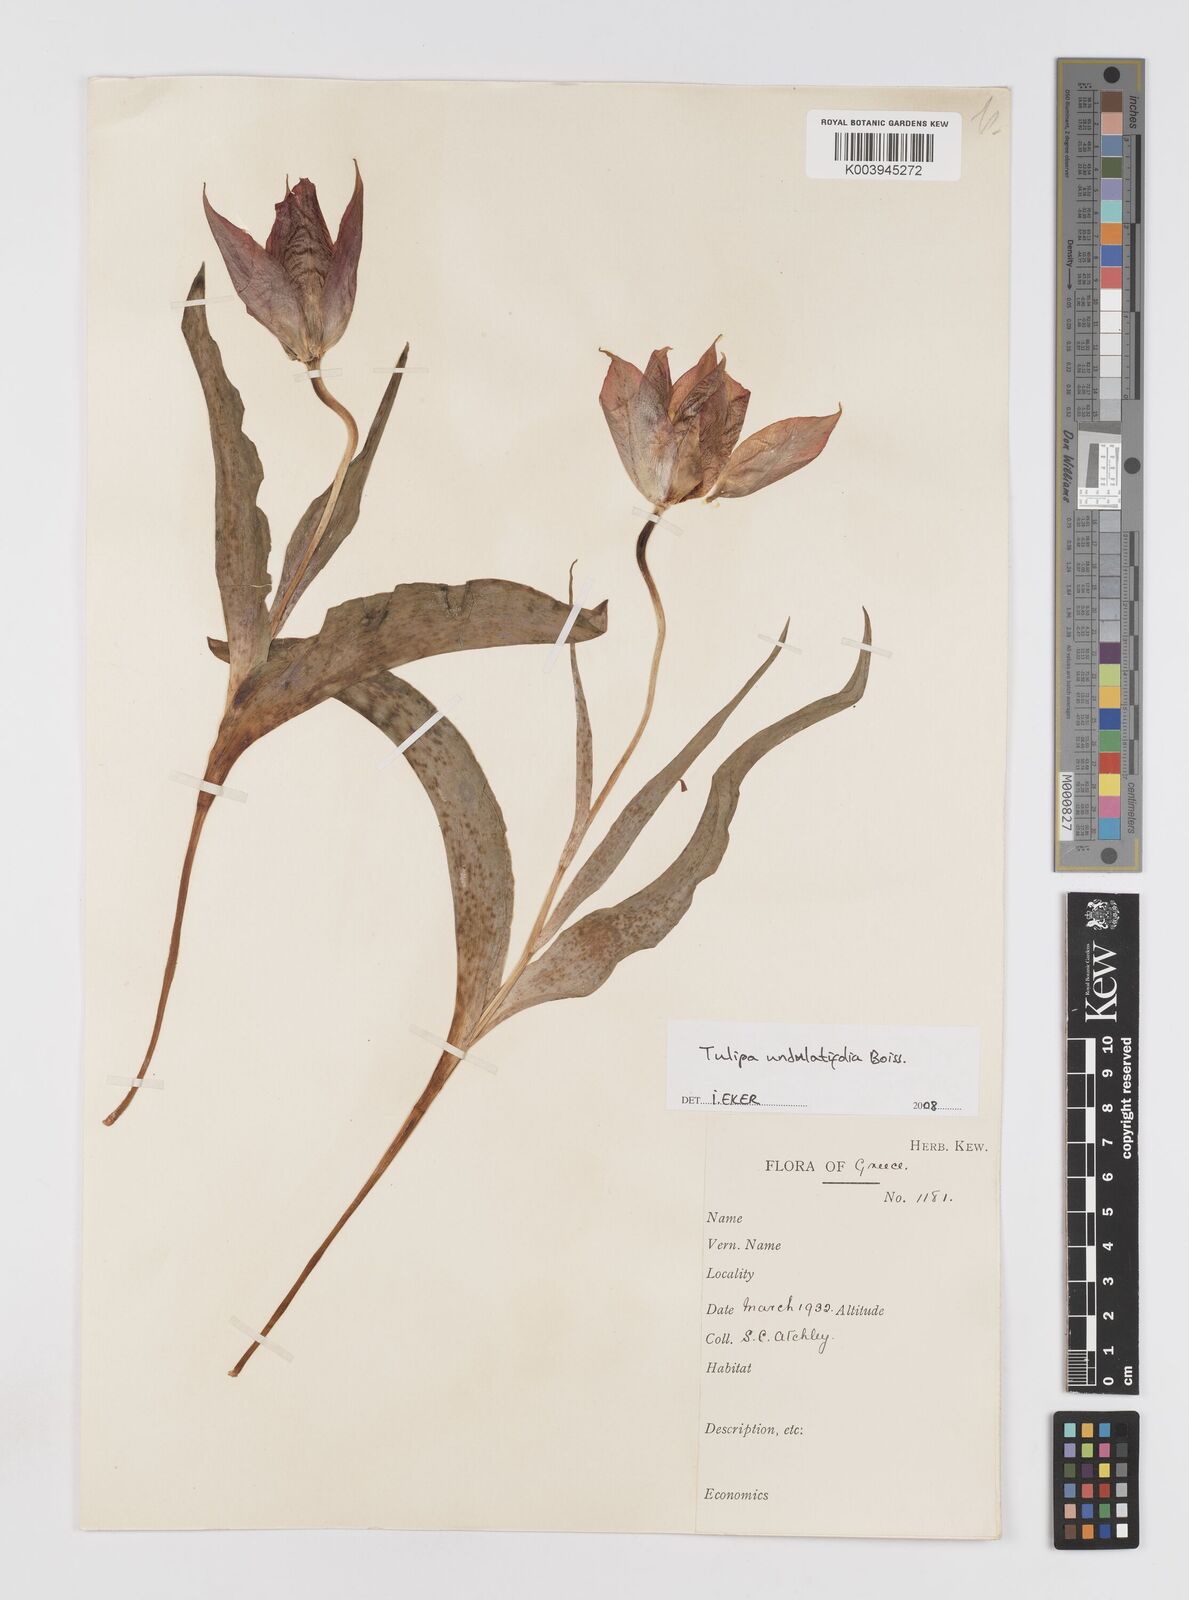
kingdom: Plantae
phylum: Tracheophyta
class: Liliopsida
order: Liliales
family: Liliaceae
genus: Tulipa
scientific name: Tulipa undulatifolia
